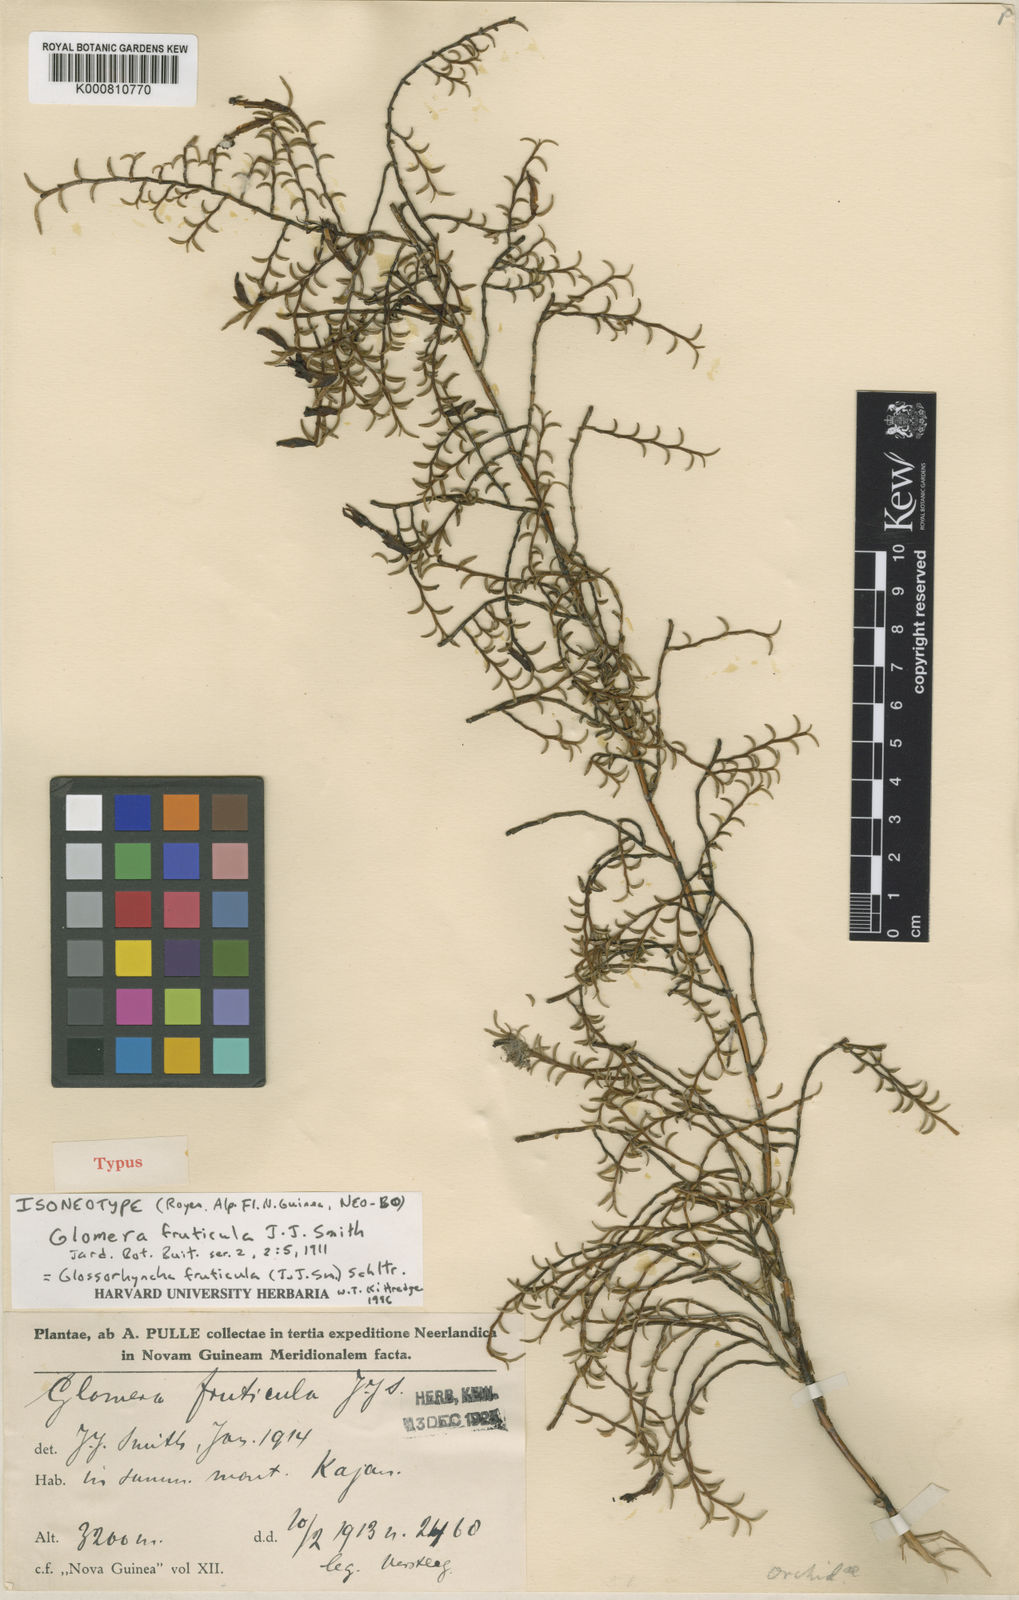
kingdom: Plantae
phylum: Tracheophyta
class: Liliopsida
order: Asparagales
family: Orchidaceae
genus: Glomera
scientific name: Glomera fruticula
